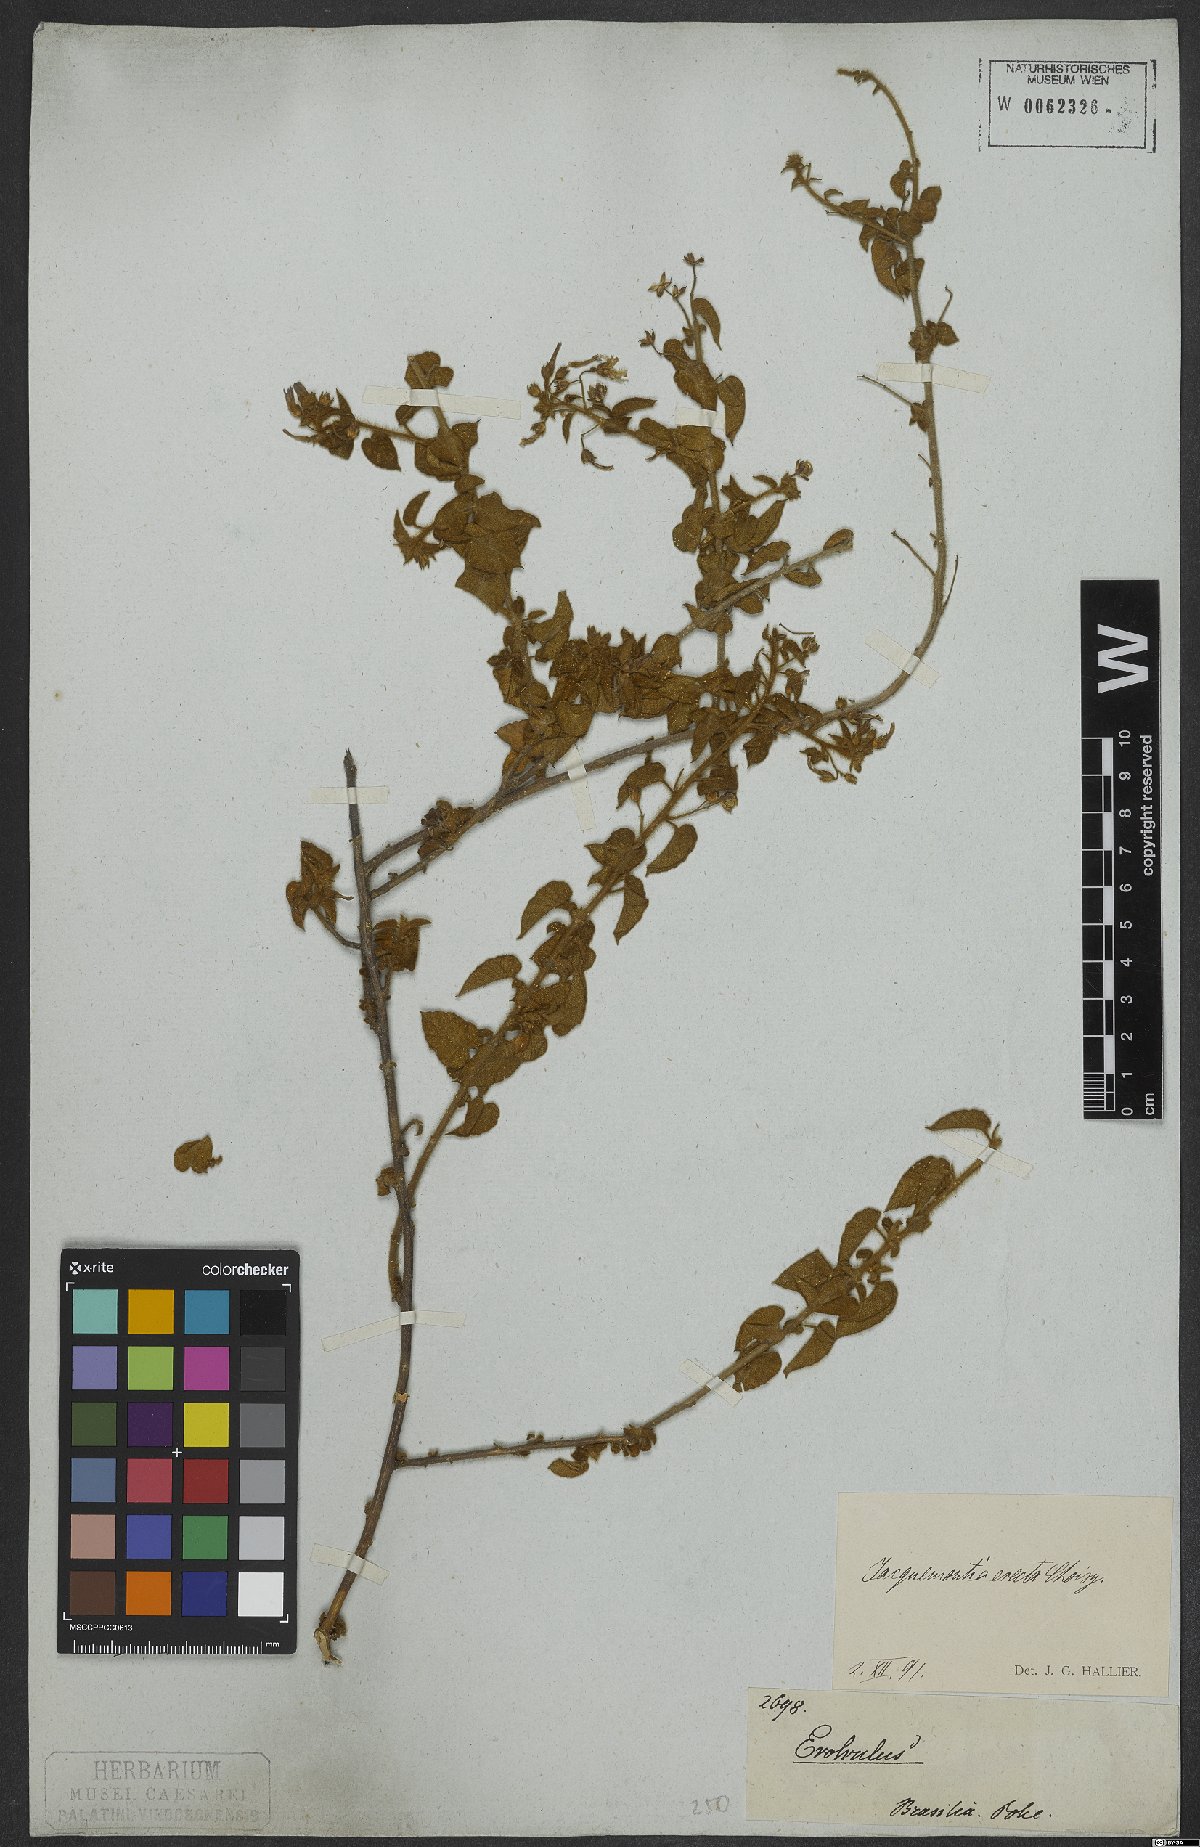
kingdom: Plantae
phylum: Tracheophyta
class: Magnoliopsida
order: Solanales
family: Convolvulaceae
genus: Jacquemontia
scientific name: Jacquemontia evolvuloides
